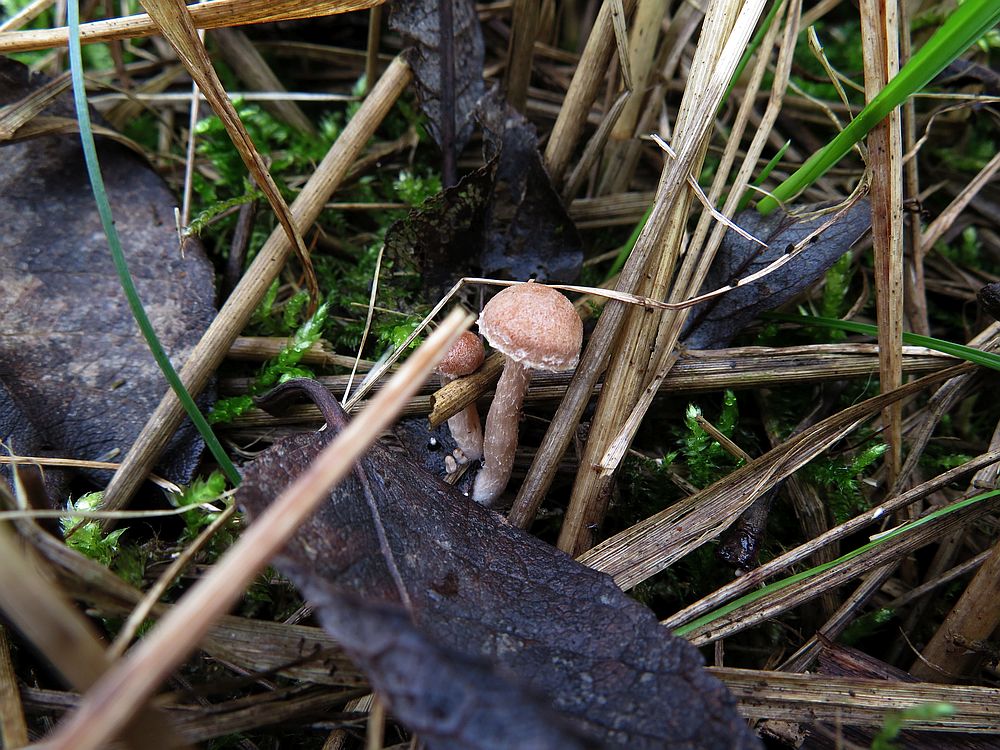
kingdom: Fungi
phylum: Basidiomycota
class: Agaricomycetes
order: Agaricales
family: Tubariaceae
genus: Tubaria
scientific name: Tubaria furfuracea
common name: kliddet fnughat
